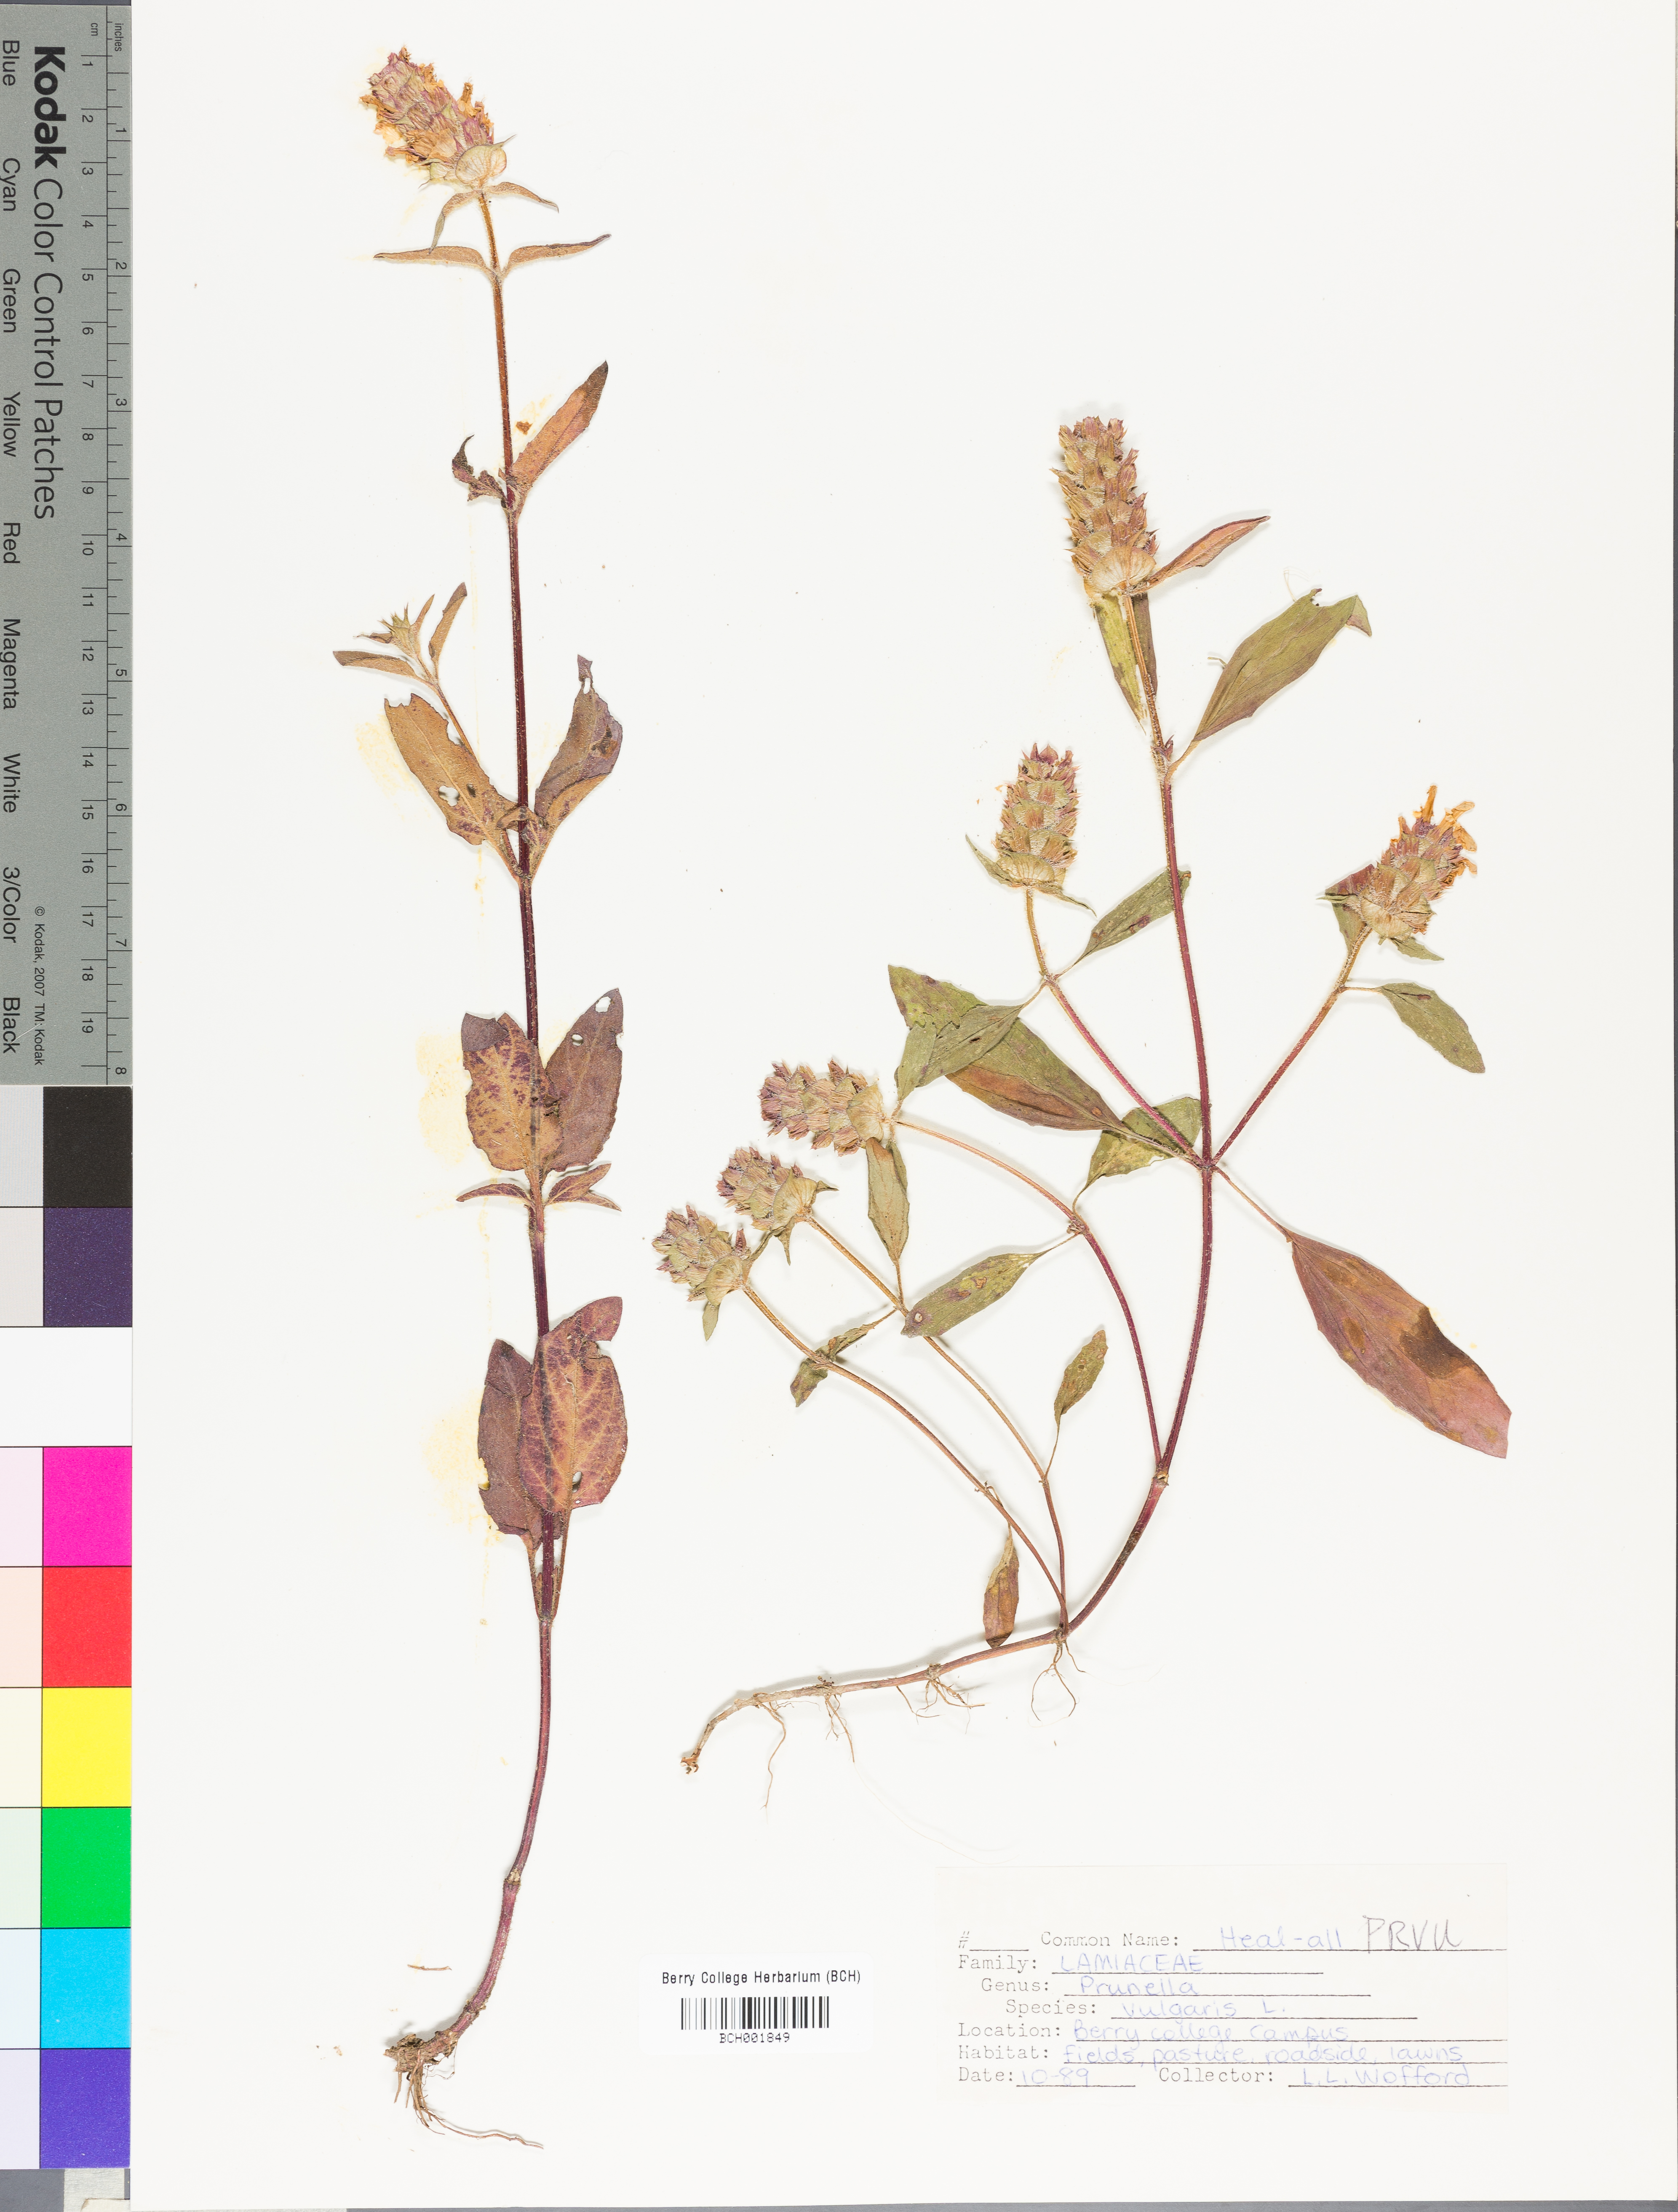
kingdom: Plantae
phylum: Tracheophyta
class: Magnoliopsida
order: Lamiales
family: Lamiaceae
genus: Prunella
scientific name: Prunella vulgaris
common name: Heal-all
